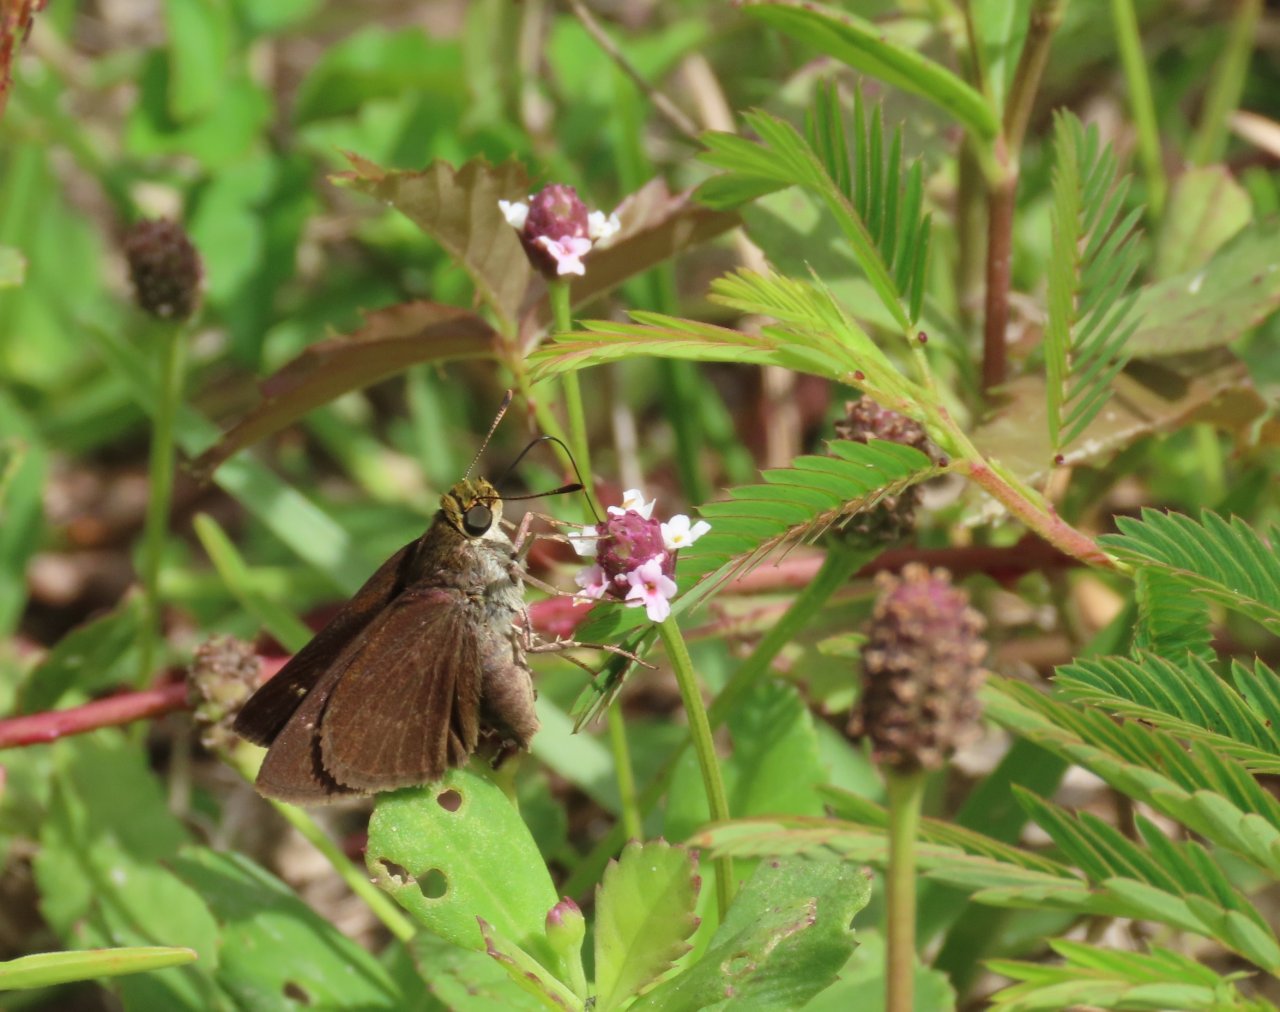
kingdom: Animalia
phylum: Arthropoda
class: Insecta
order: Lepidoptera
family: Hesperiidae
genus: Euphyes
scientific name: Euphyes vestris
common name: Dun Skipper
